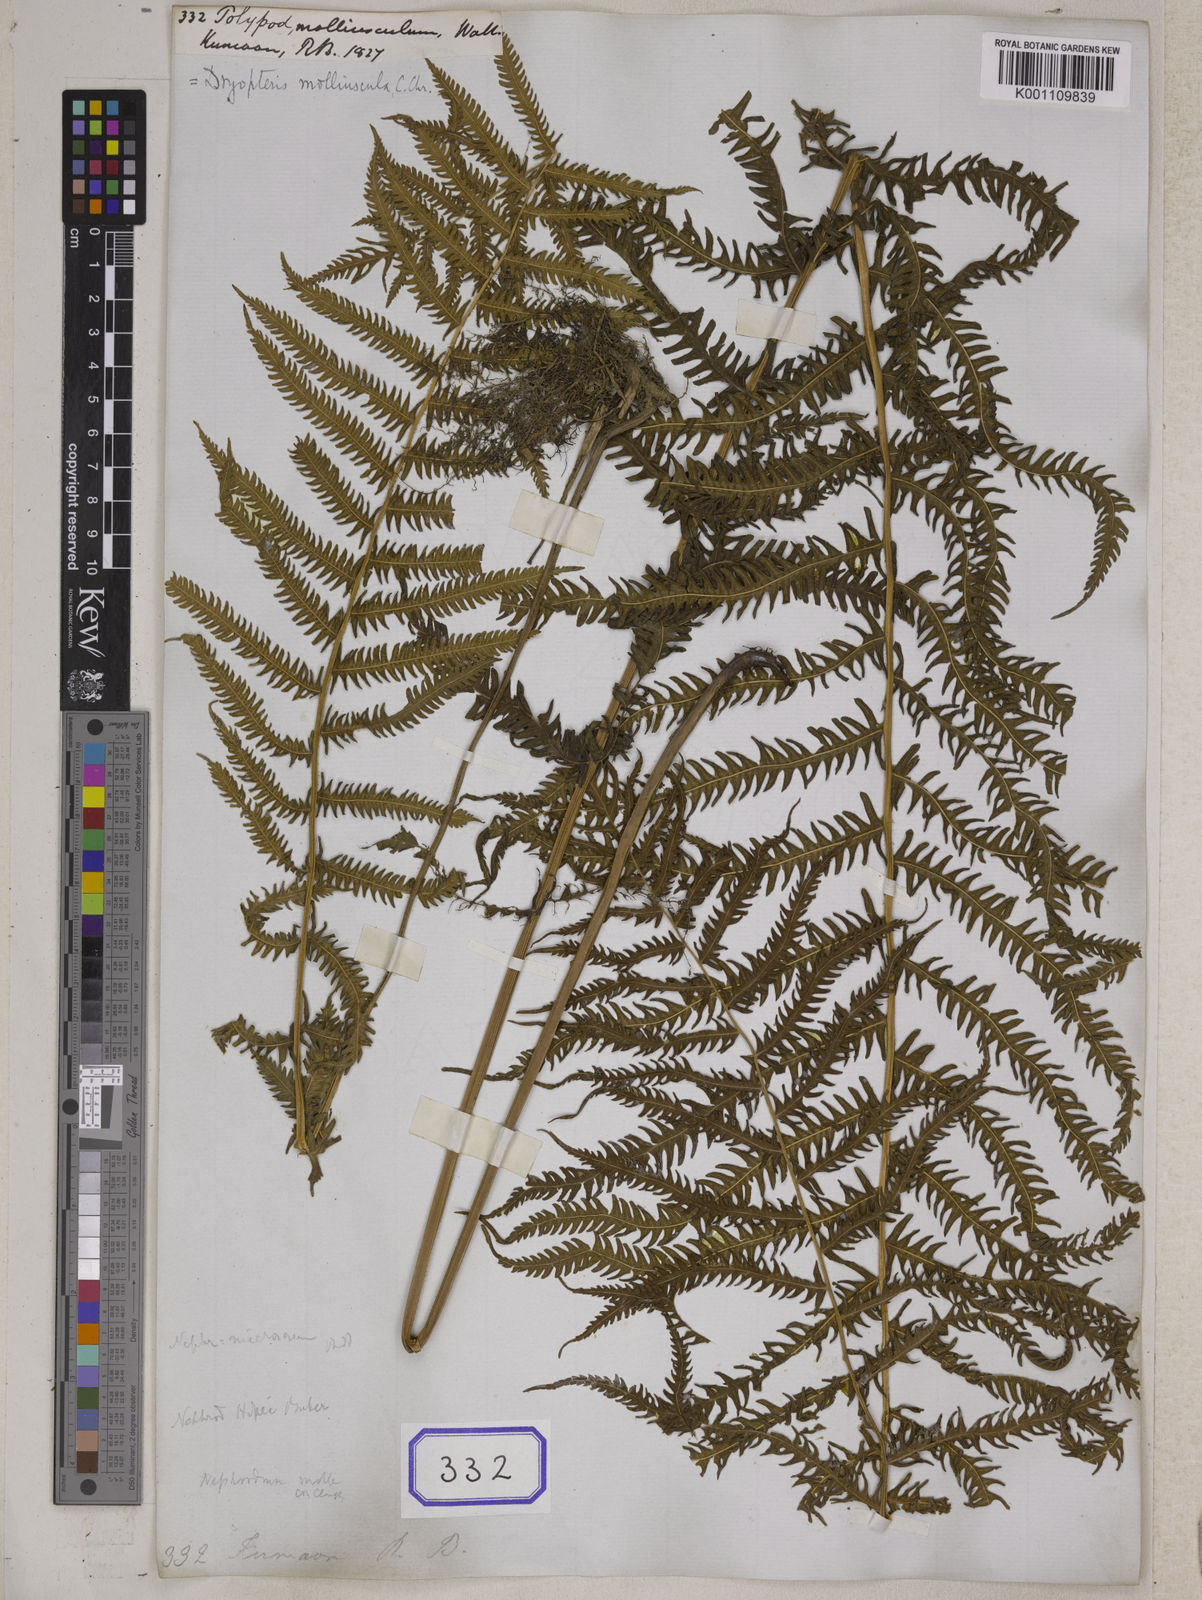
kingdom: Plantae
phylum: Tracheophyta
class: Polypodiopsida
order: Polypodiales
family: Thelypteridaceae
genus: Pseudocyclosorus
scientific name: Pseudocyclosorus canus
